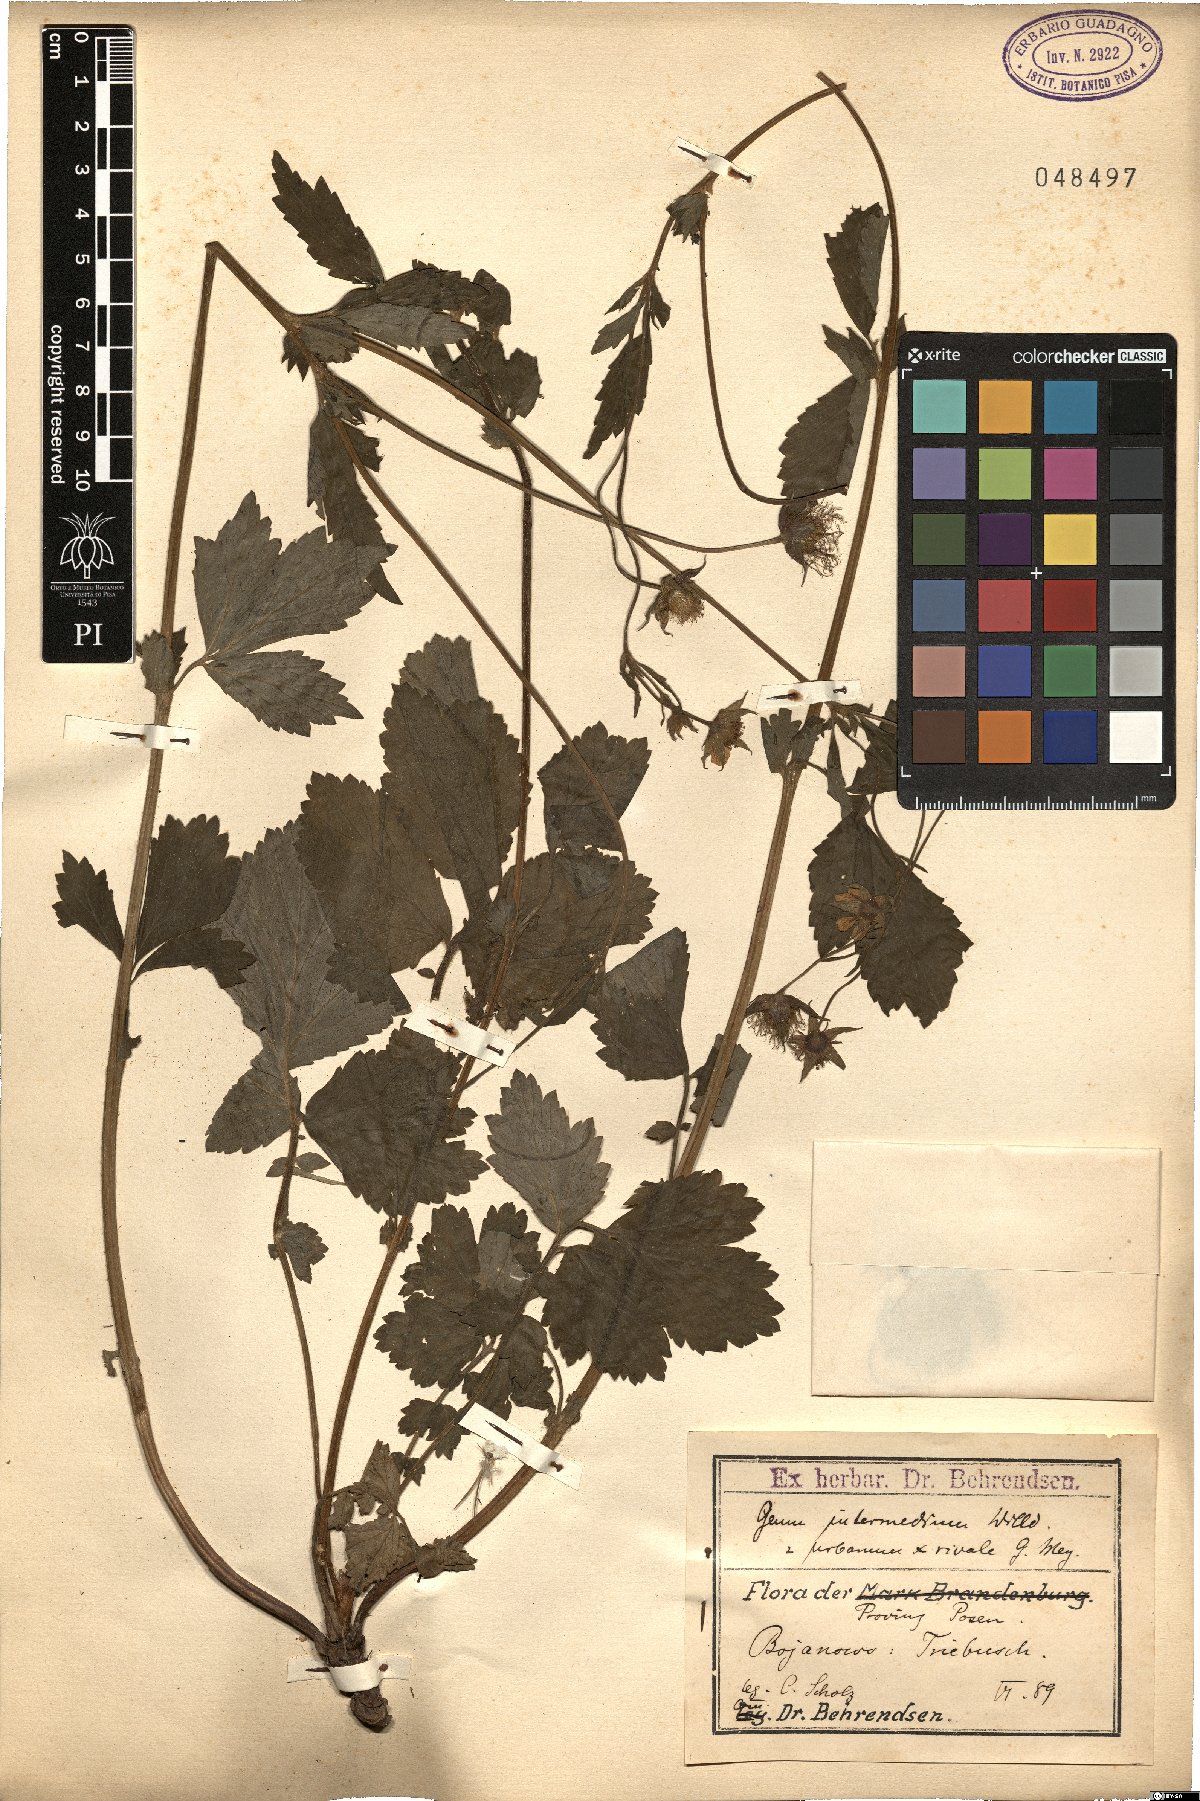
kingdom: Plantae
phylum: Tracheophyta
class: Magnoliopsida
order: Rosales
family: Rosaceae
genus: Geum
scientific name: Geum intermedium
